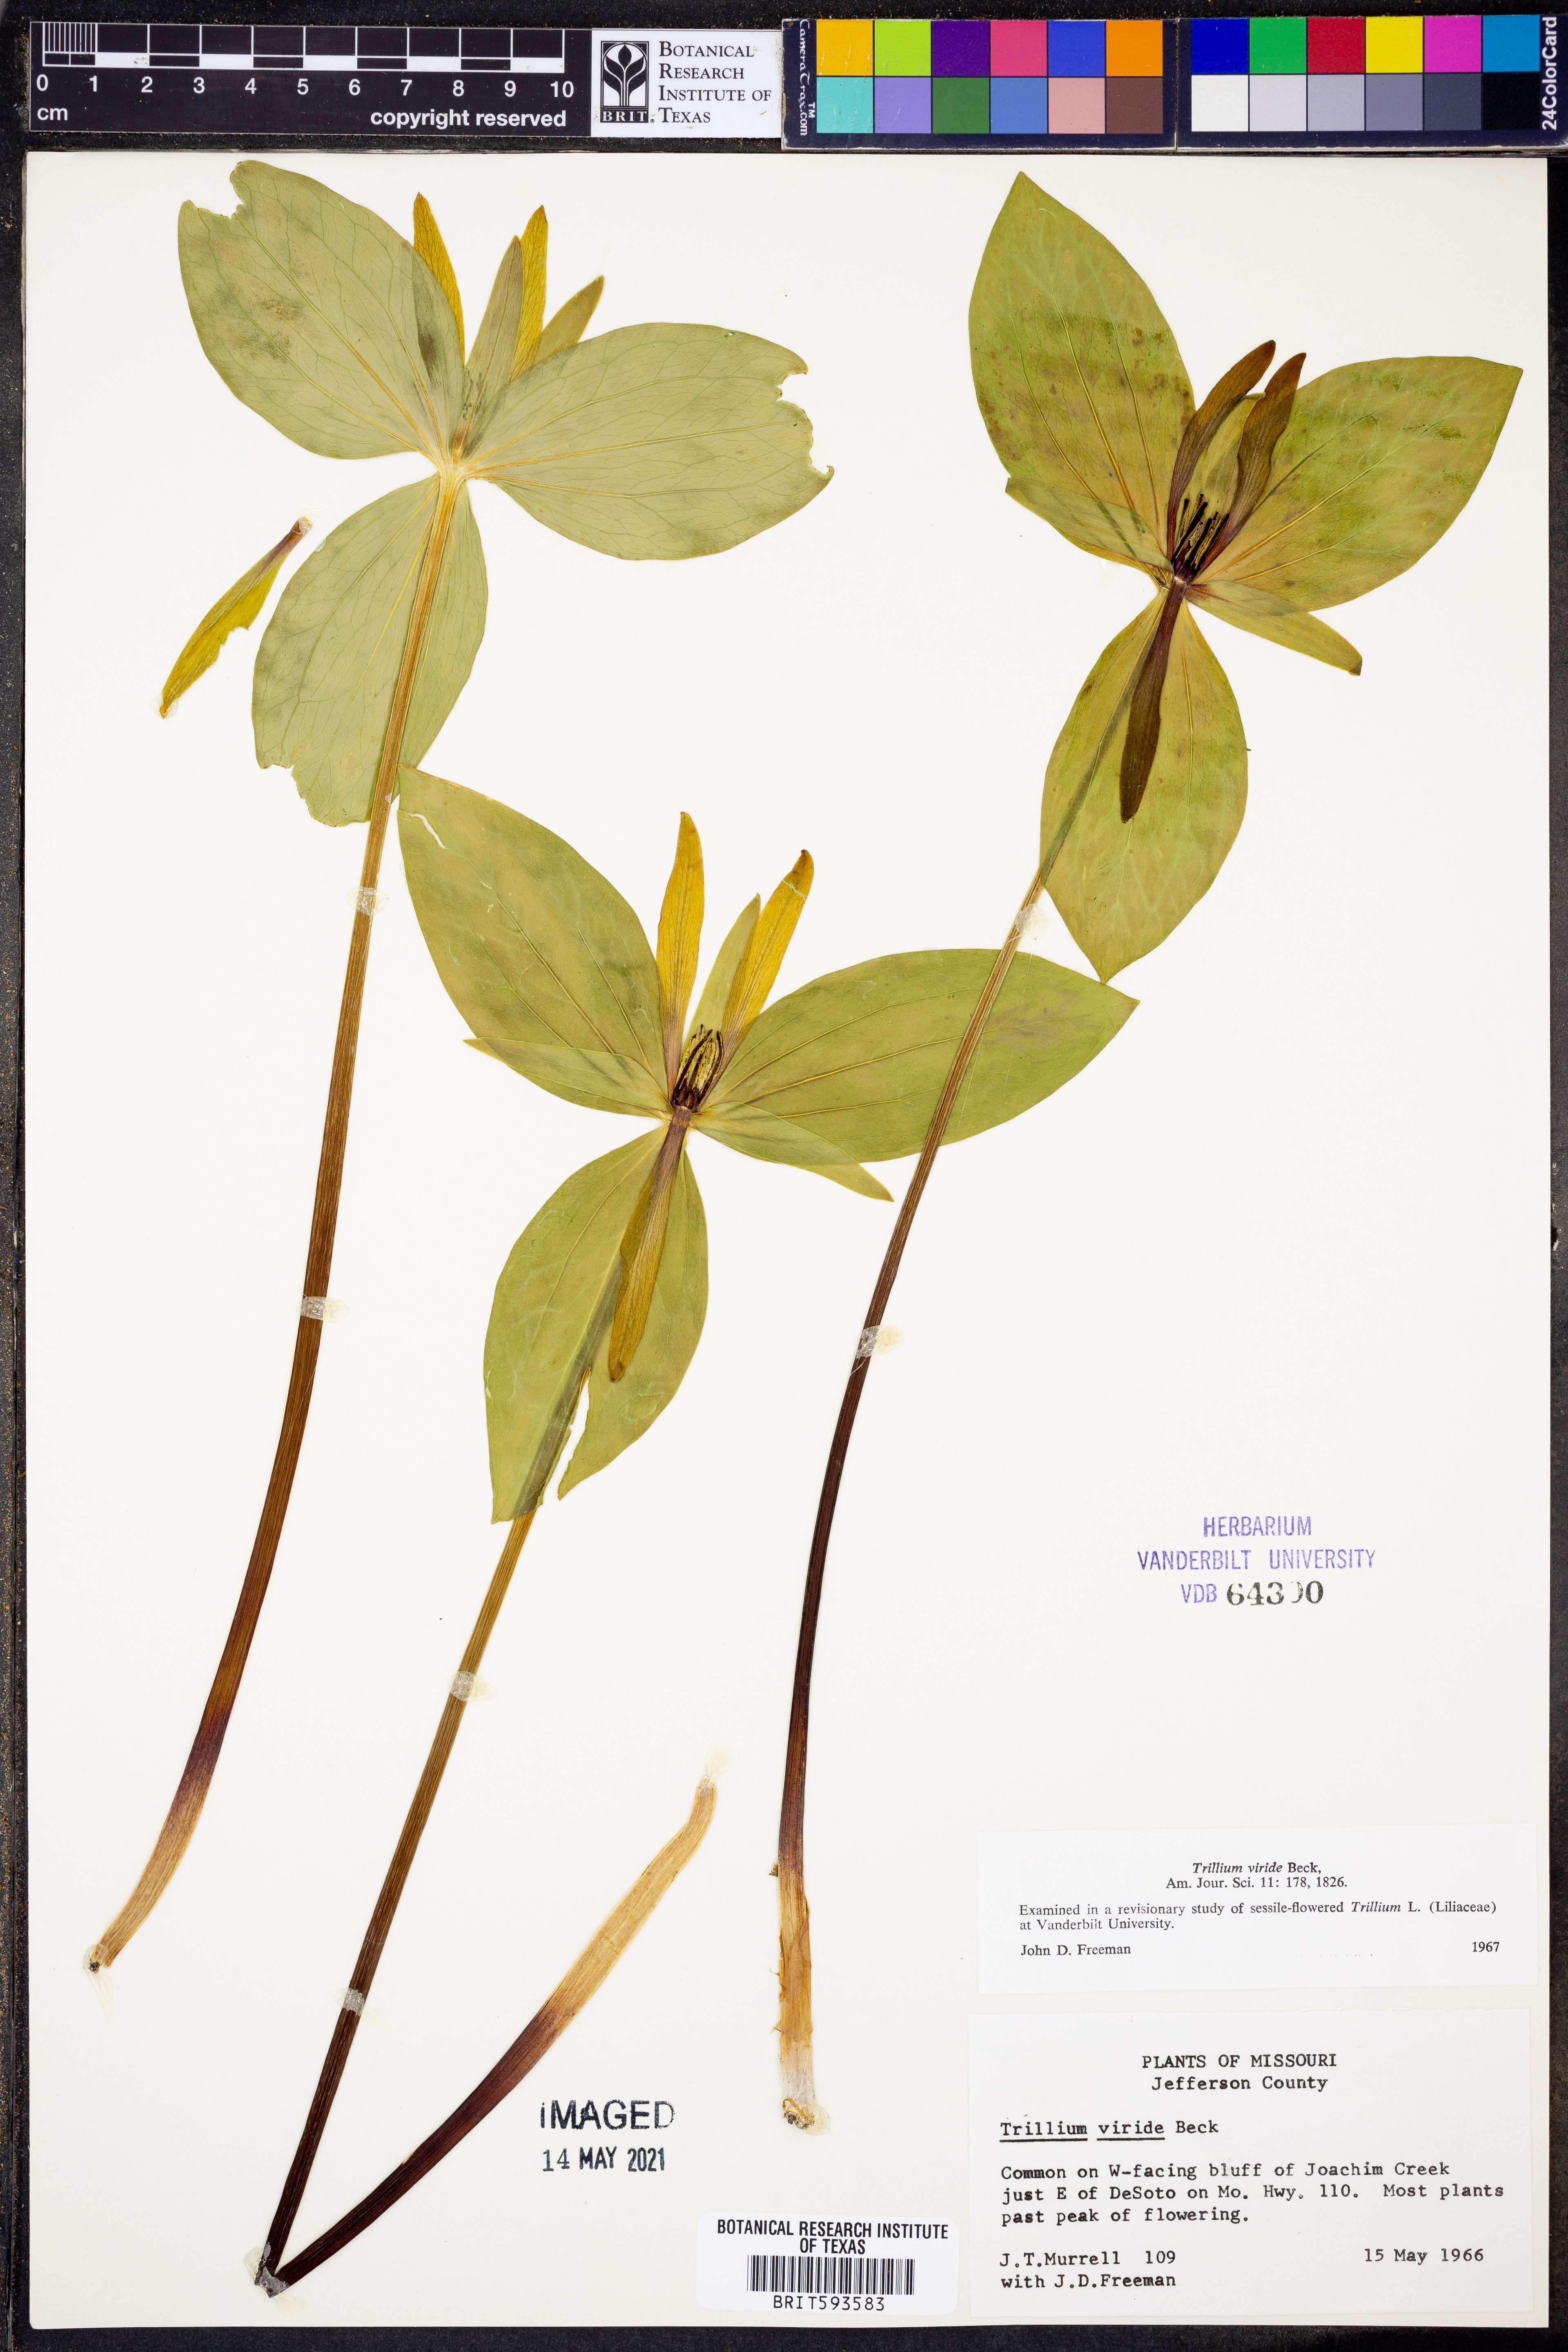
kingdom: Plantae
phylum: Tracheophyta
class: Liliopsida
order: Liliales
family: Melanthiaceae
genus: Trillium
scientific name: Trillium viride
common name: Green trillium
